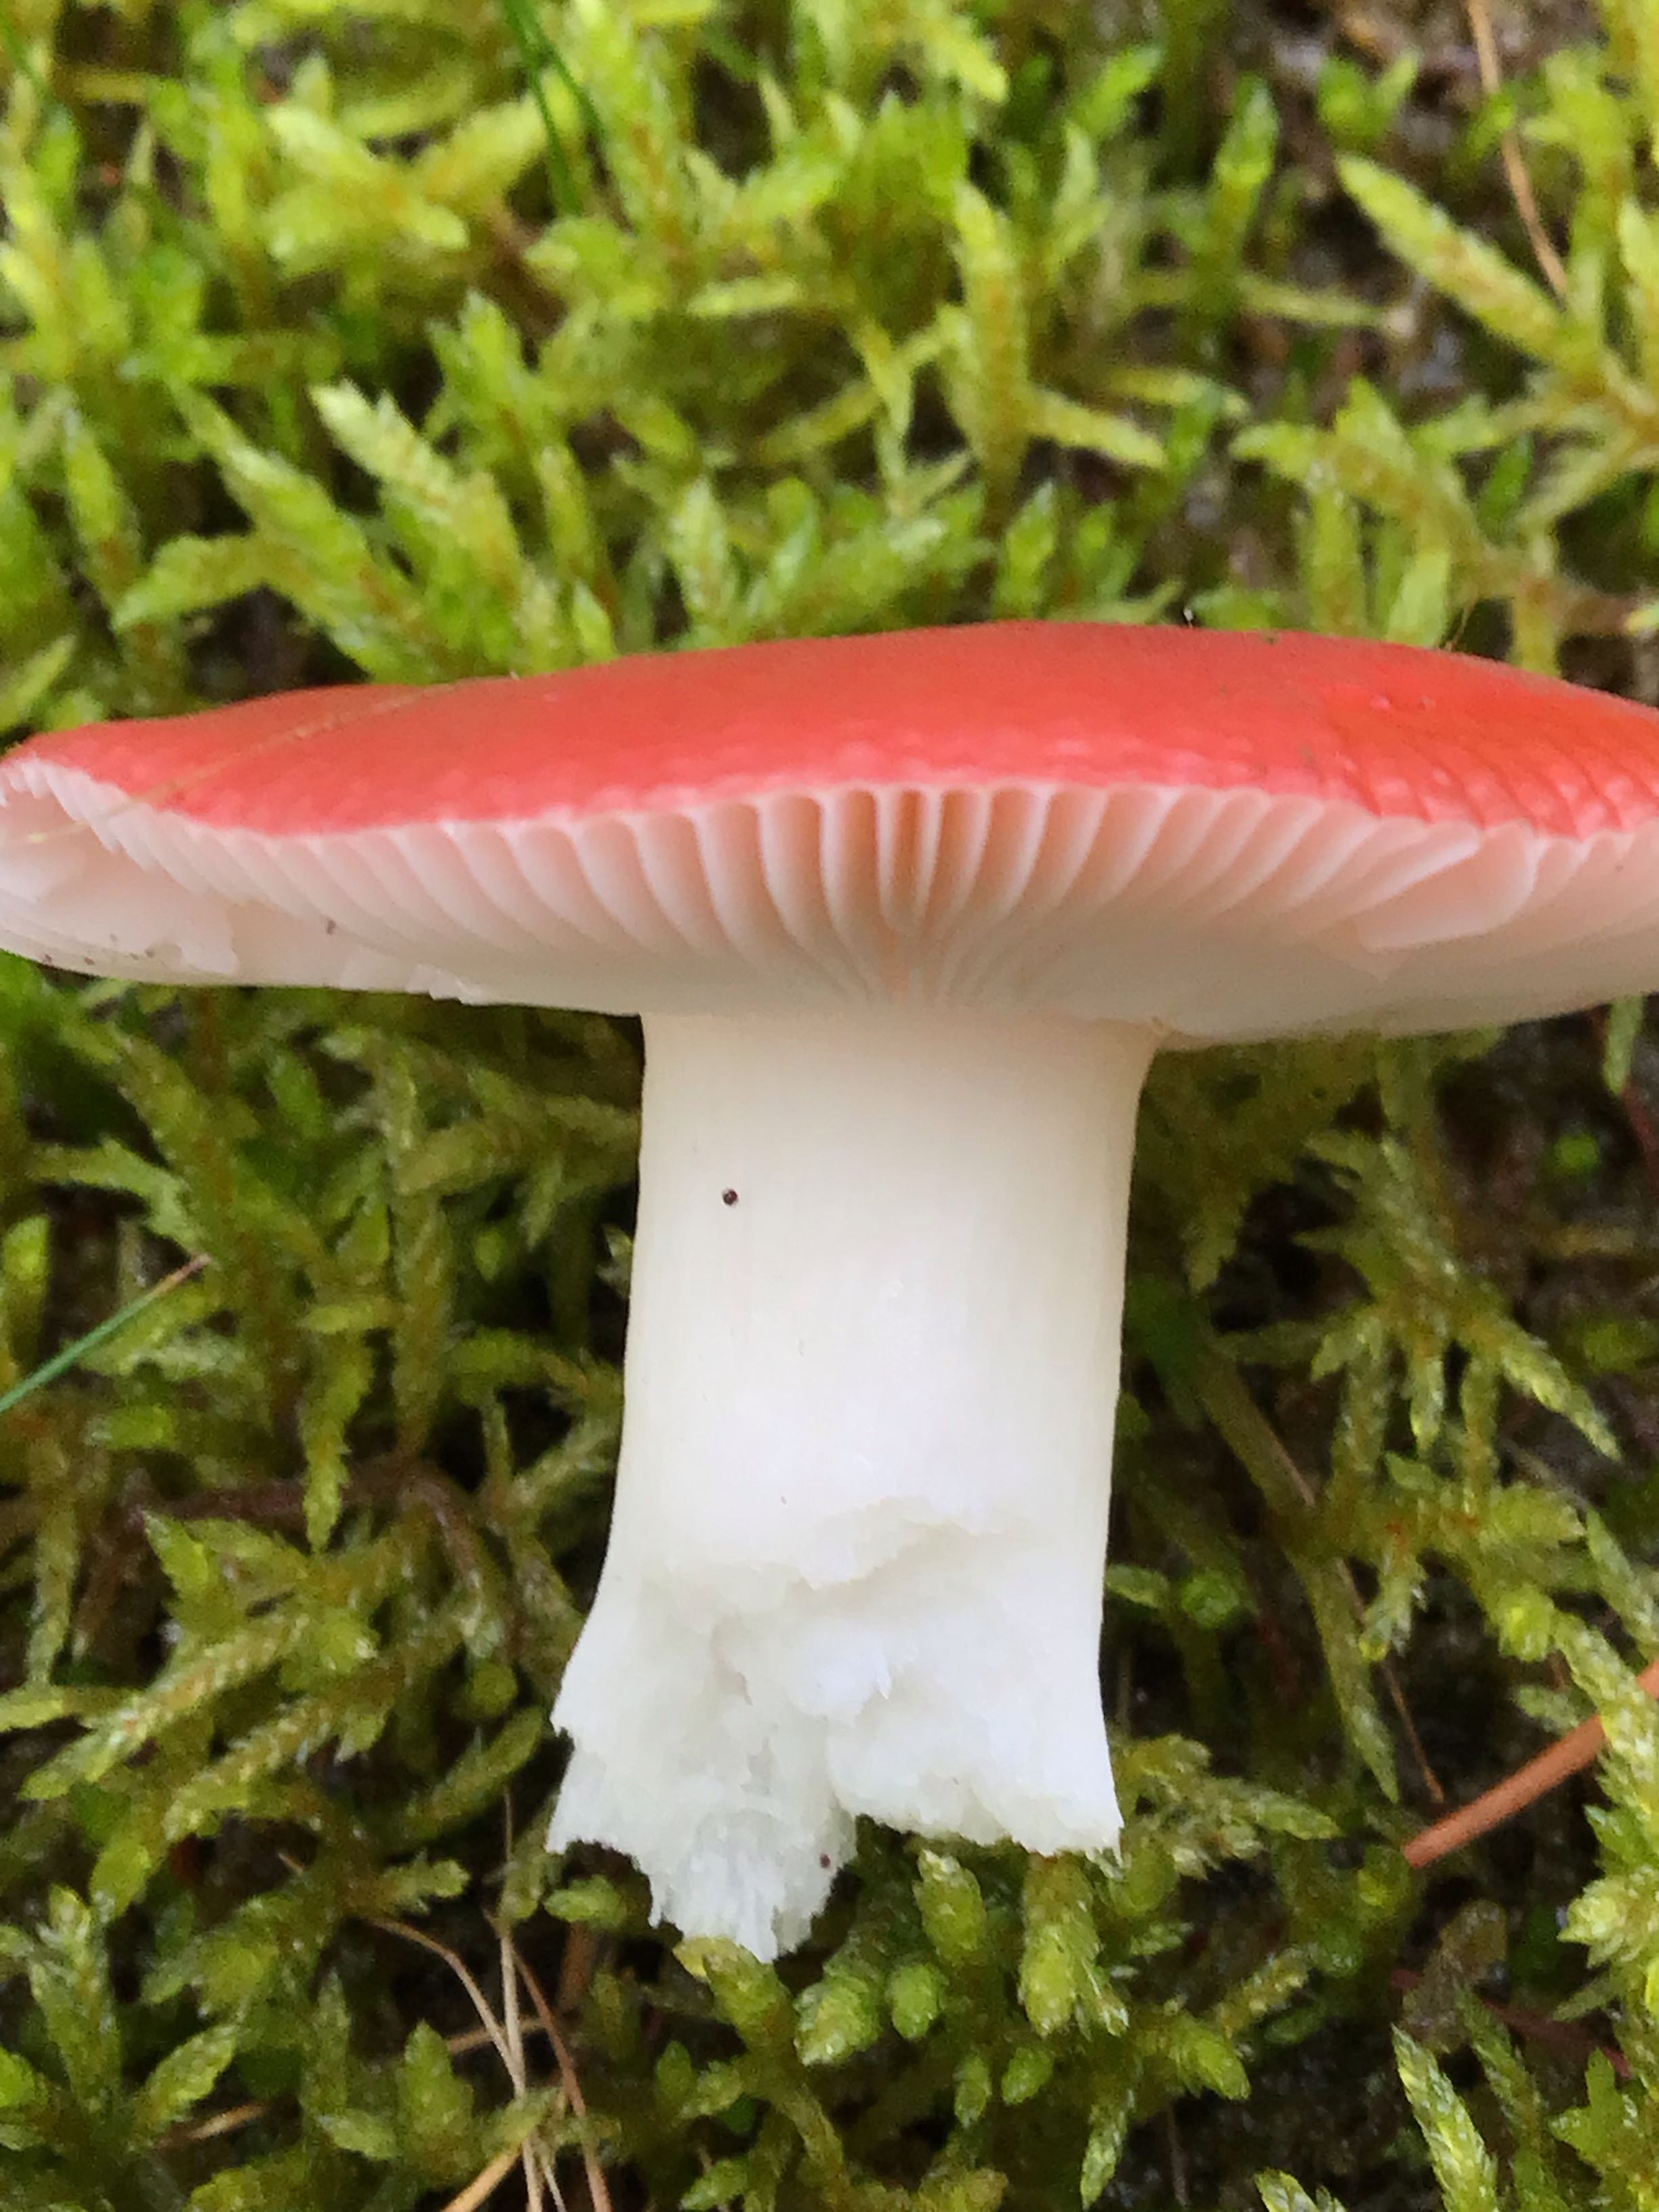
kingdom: Fungi
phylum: Basidiomycota
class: Agaricomycetes
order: Russulales
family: Russulaceae
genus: Russula
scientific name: Russula
